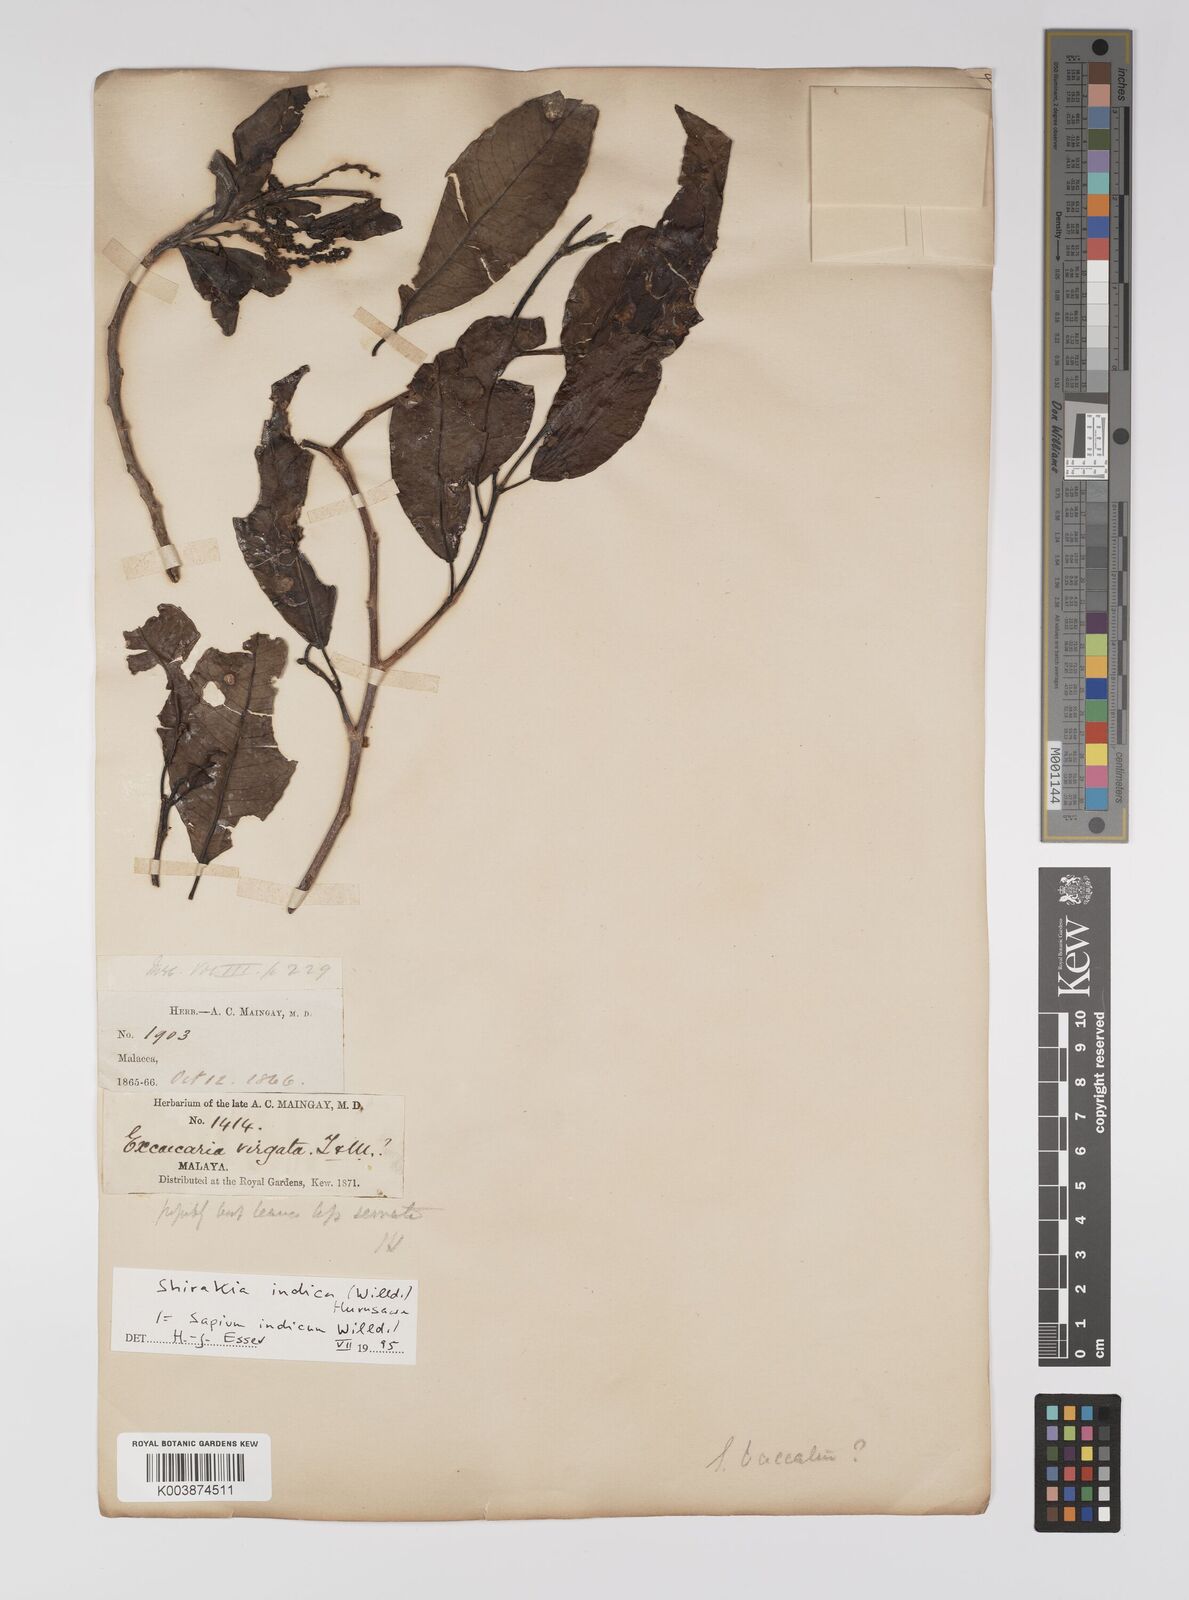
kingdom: Plantae
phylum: Tracheophyta
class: Magnoliopsida
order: Malpighiales
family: Euphorbiaceae
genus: Shirakiopsis
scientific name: Shirakiopsis indica
